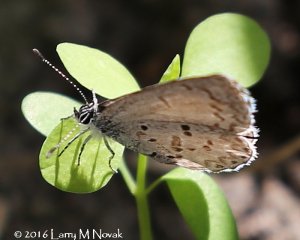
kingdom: Animalia
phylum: Arthropoda
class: Insecta
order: Lepidoptera
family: Lycaenidae
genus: Celastrina
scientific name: Celastrina
